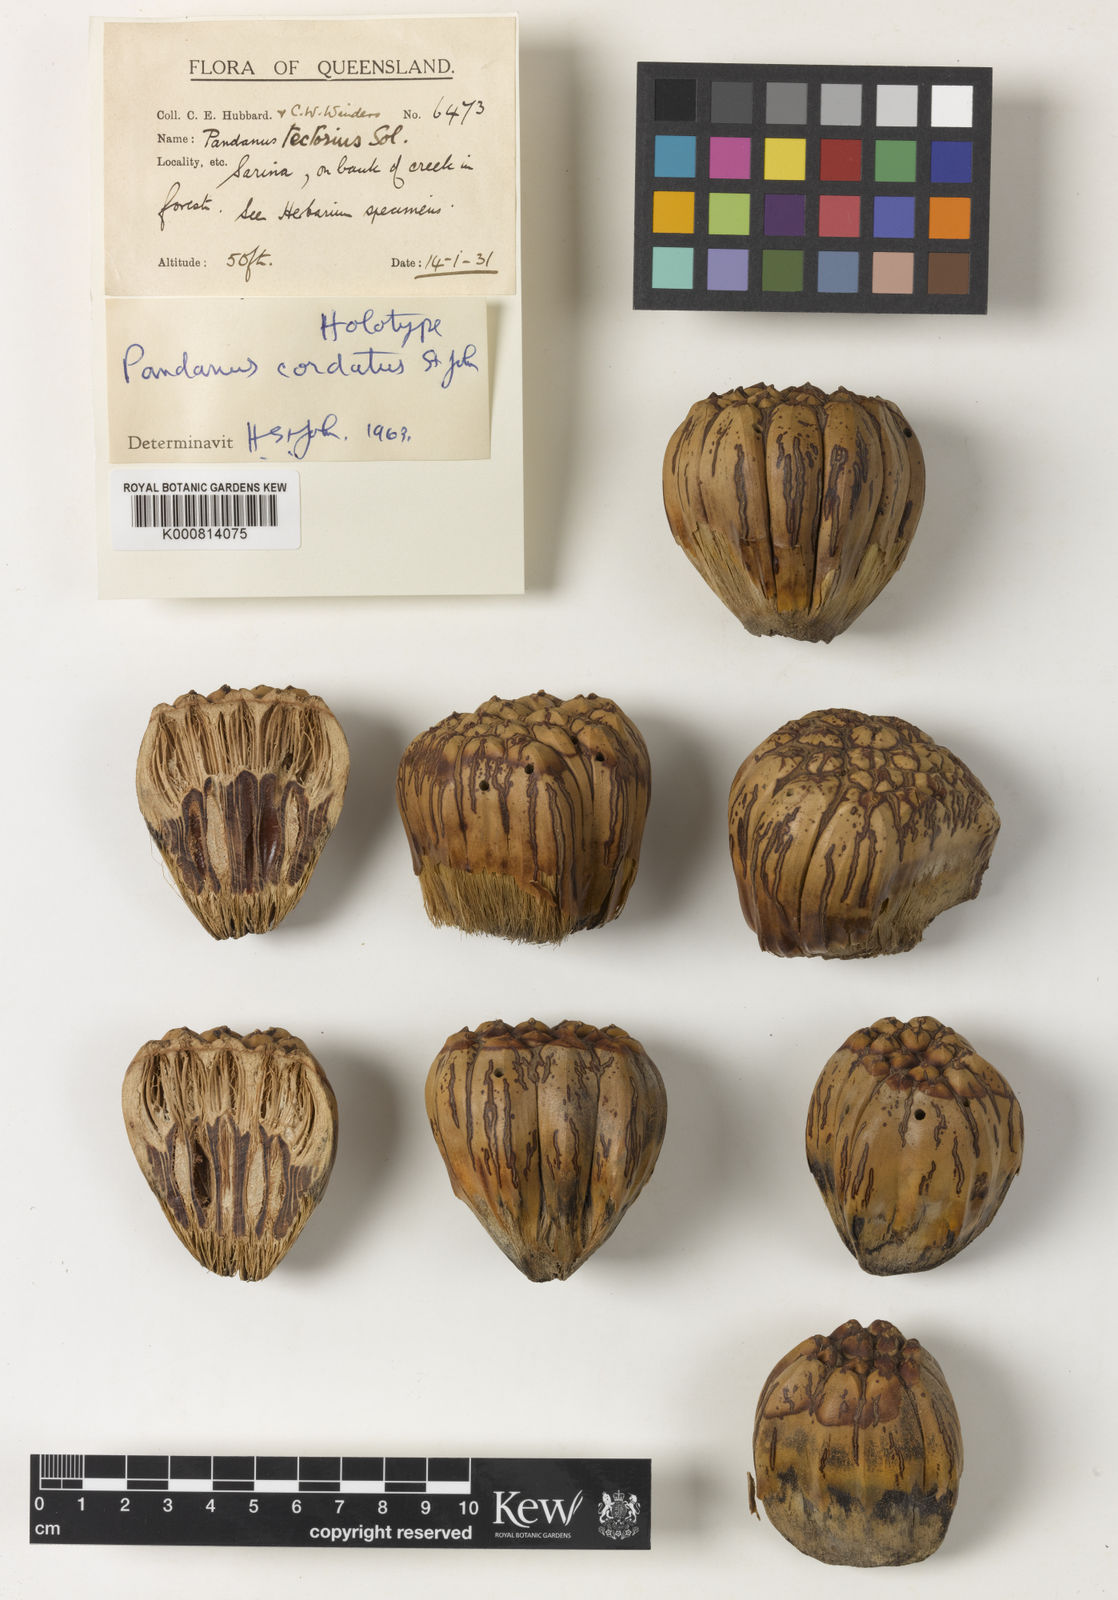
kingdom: Plantae
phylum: Tracheophyta
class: Liliopsida
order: Pandanales
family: Pandanaceae
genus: Pandanus
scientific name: Pandanus brookei
